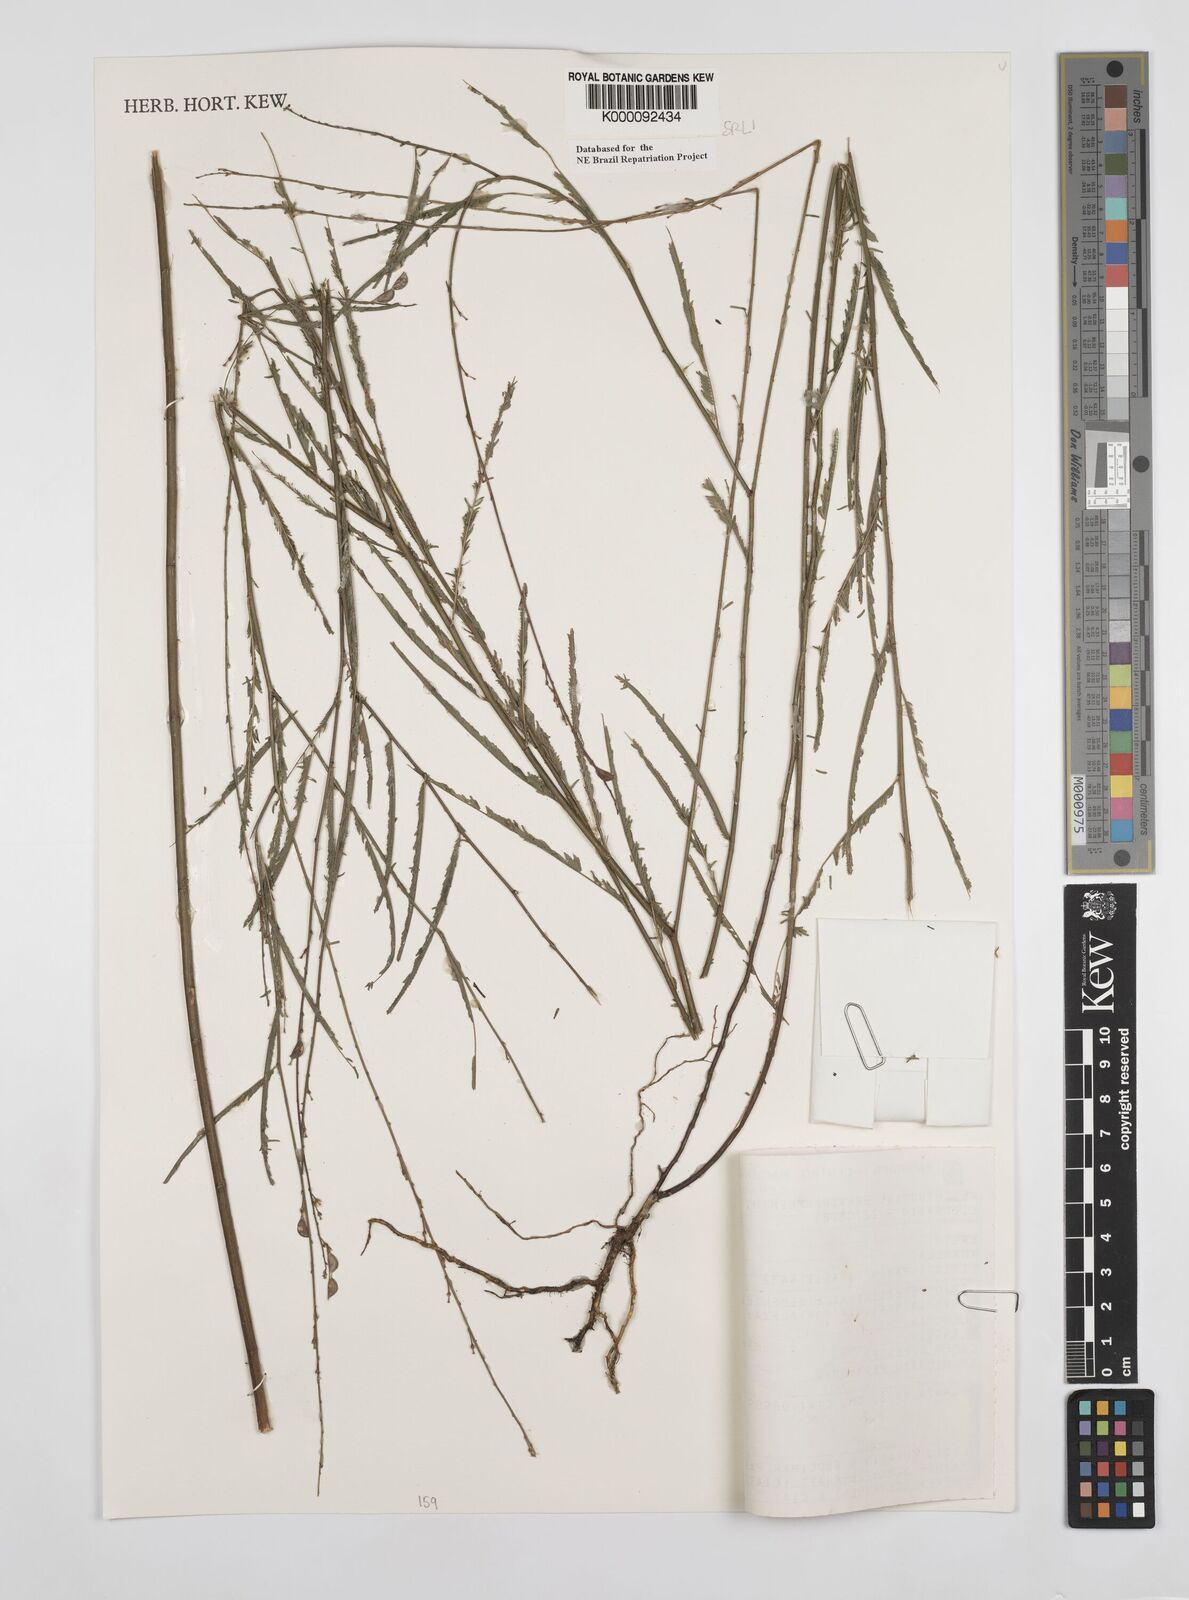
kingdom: Plantae
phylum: Tracheophyta
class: Magnoliopsida
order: Fabales
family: Fabaceae
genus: Ctenodon
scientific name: Ctenodon brevipes
